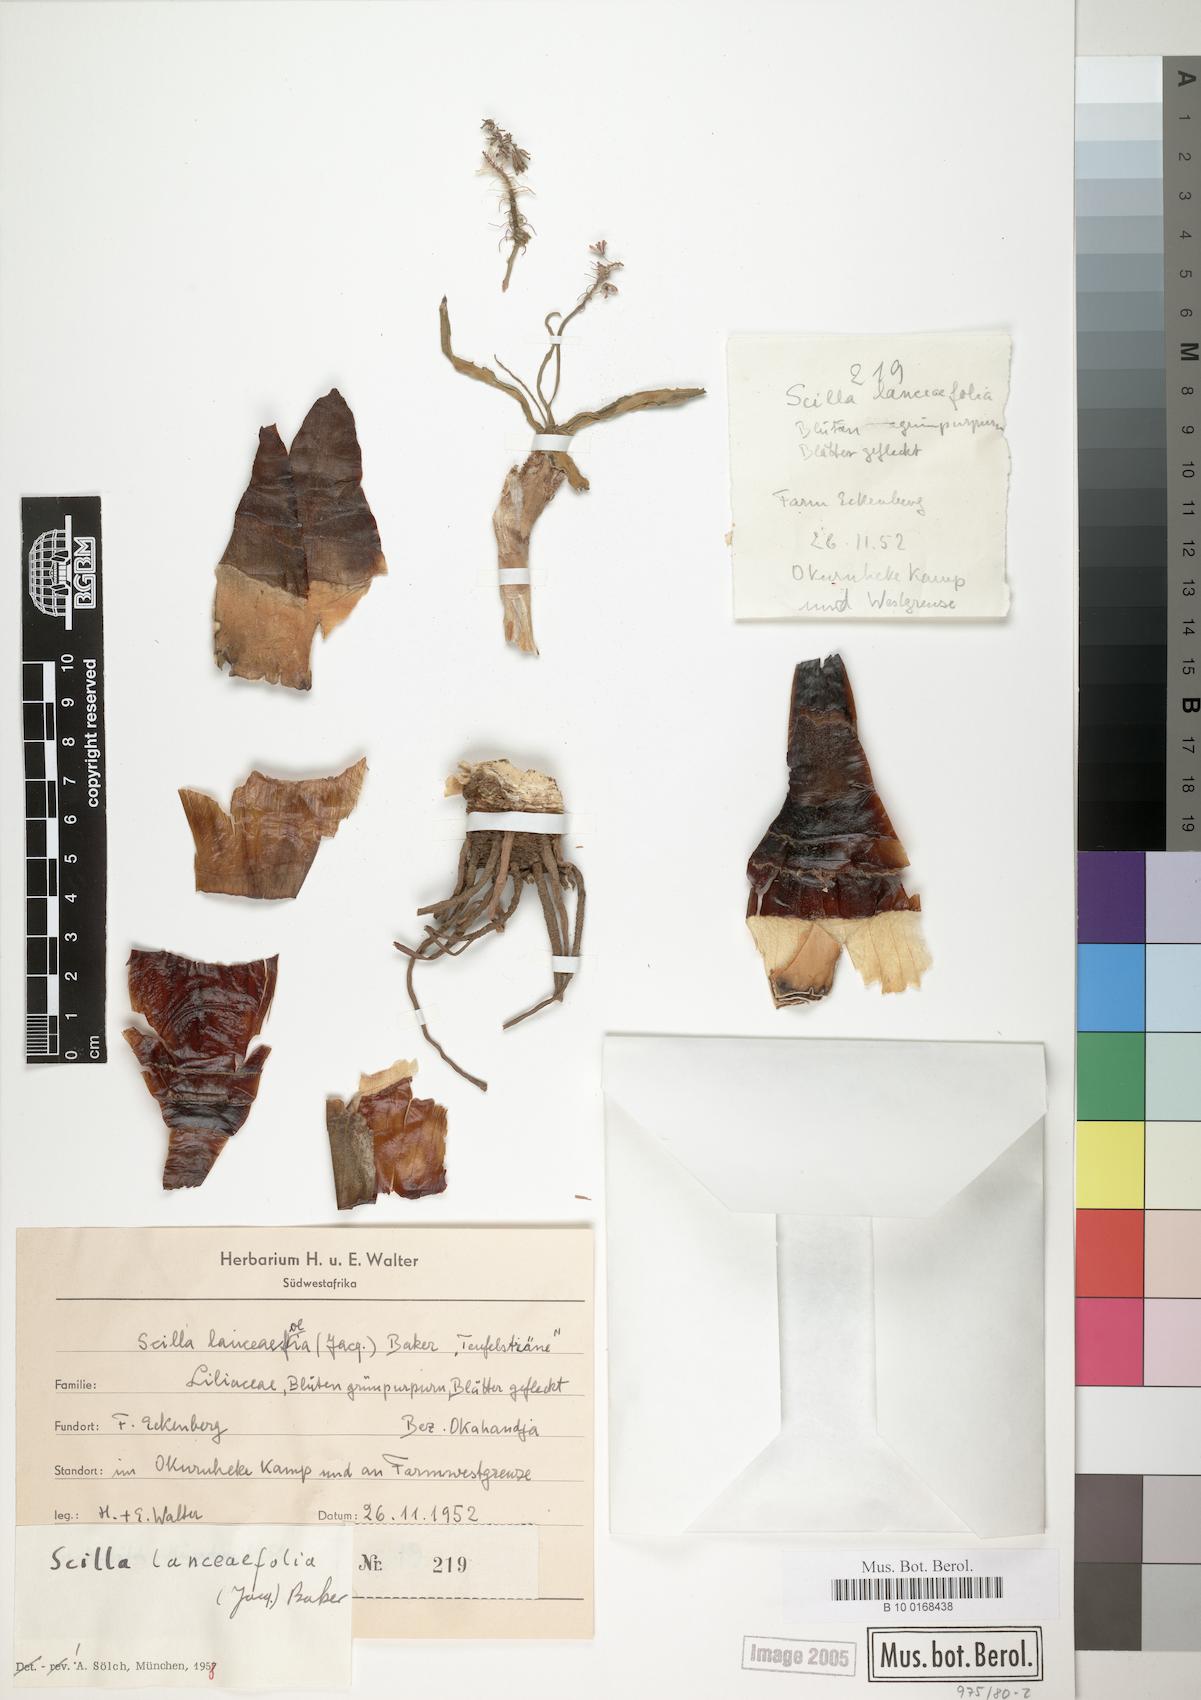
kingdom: Plantae
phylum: Tracheophyta
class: Liliopsida
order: Asparagales
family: Asparagaceae
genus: Ledebouria
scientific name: Ledebouria revoluta
